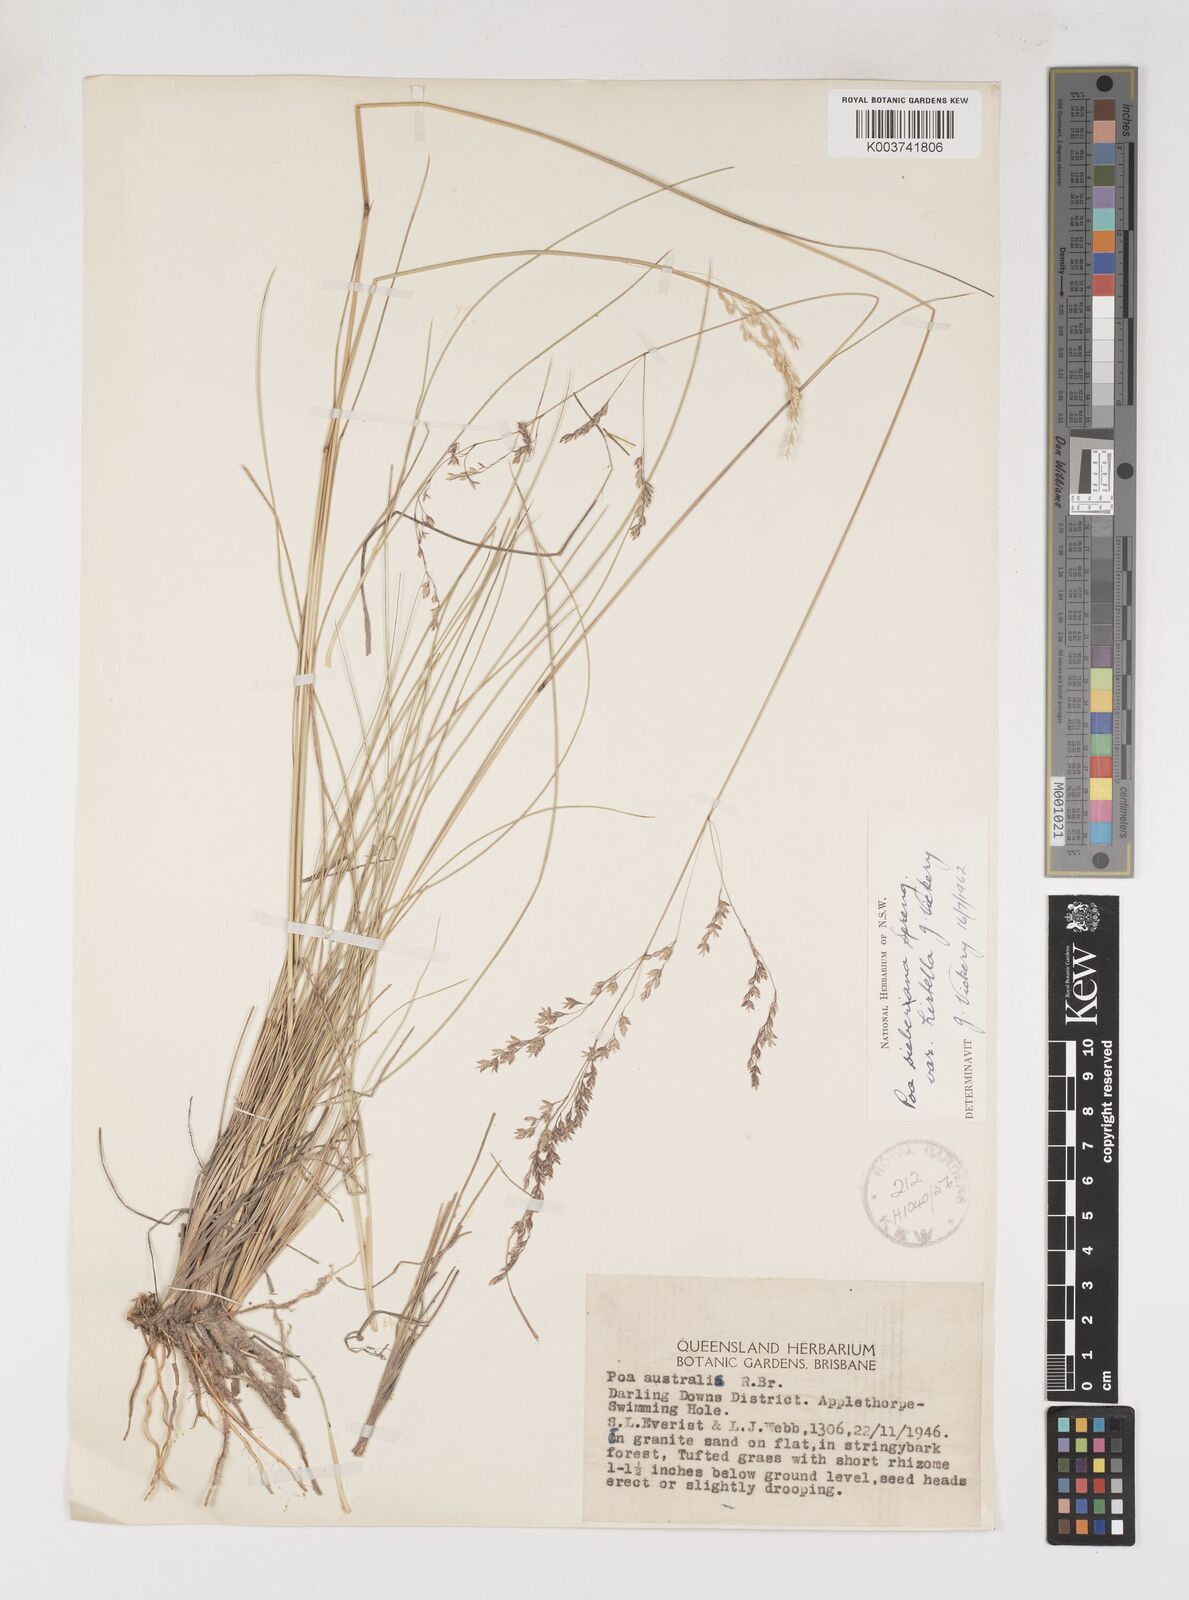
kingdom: Plantae
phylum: Tracheophyta
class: Liliopsida
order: Poales
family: Poaceae
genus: Poa
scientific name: Poa sieberiana
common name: Tussock poa
